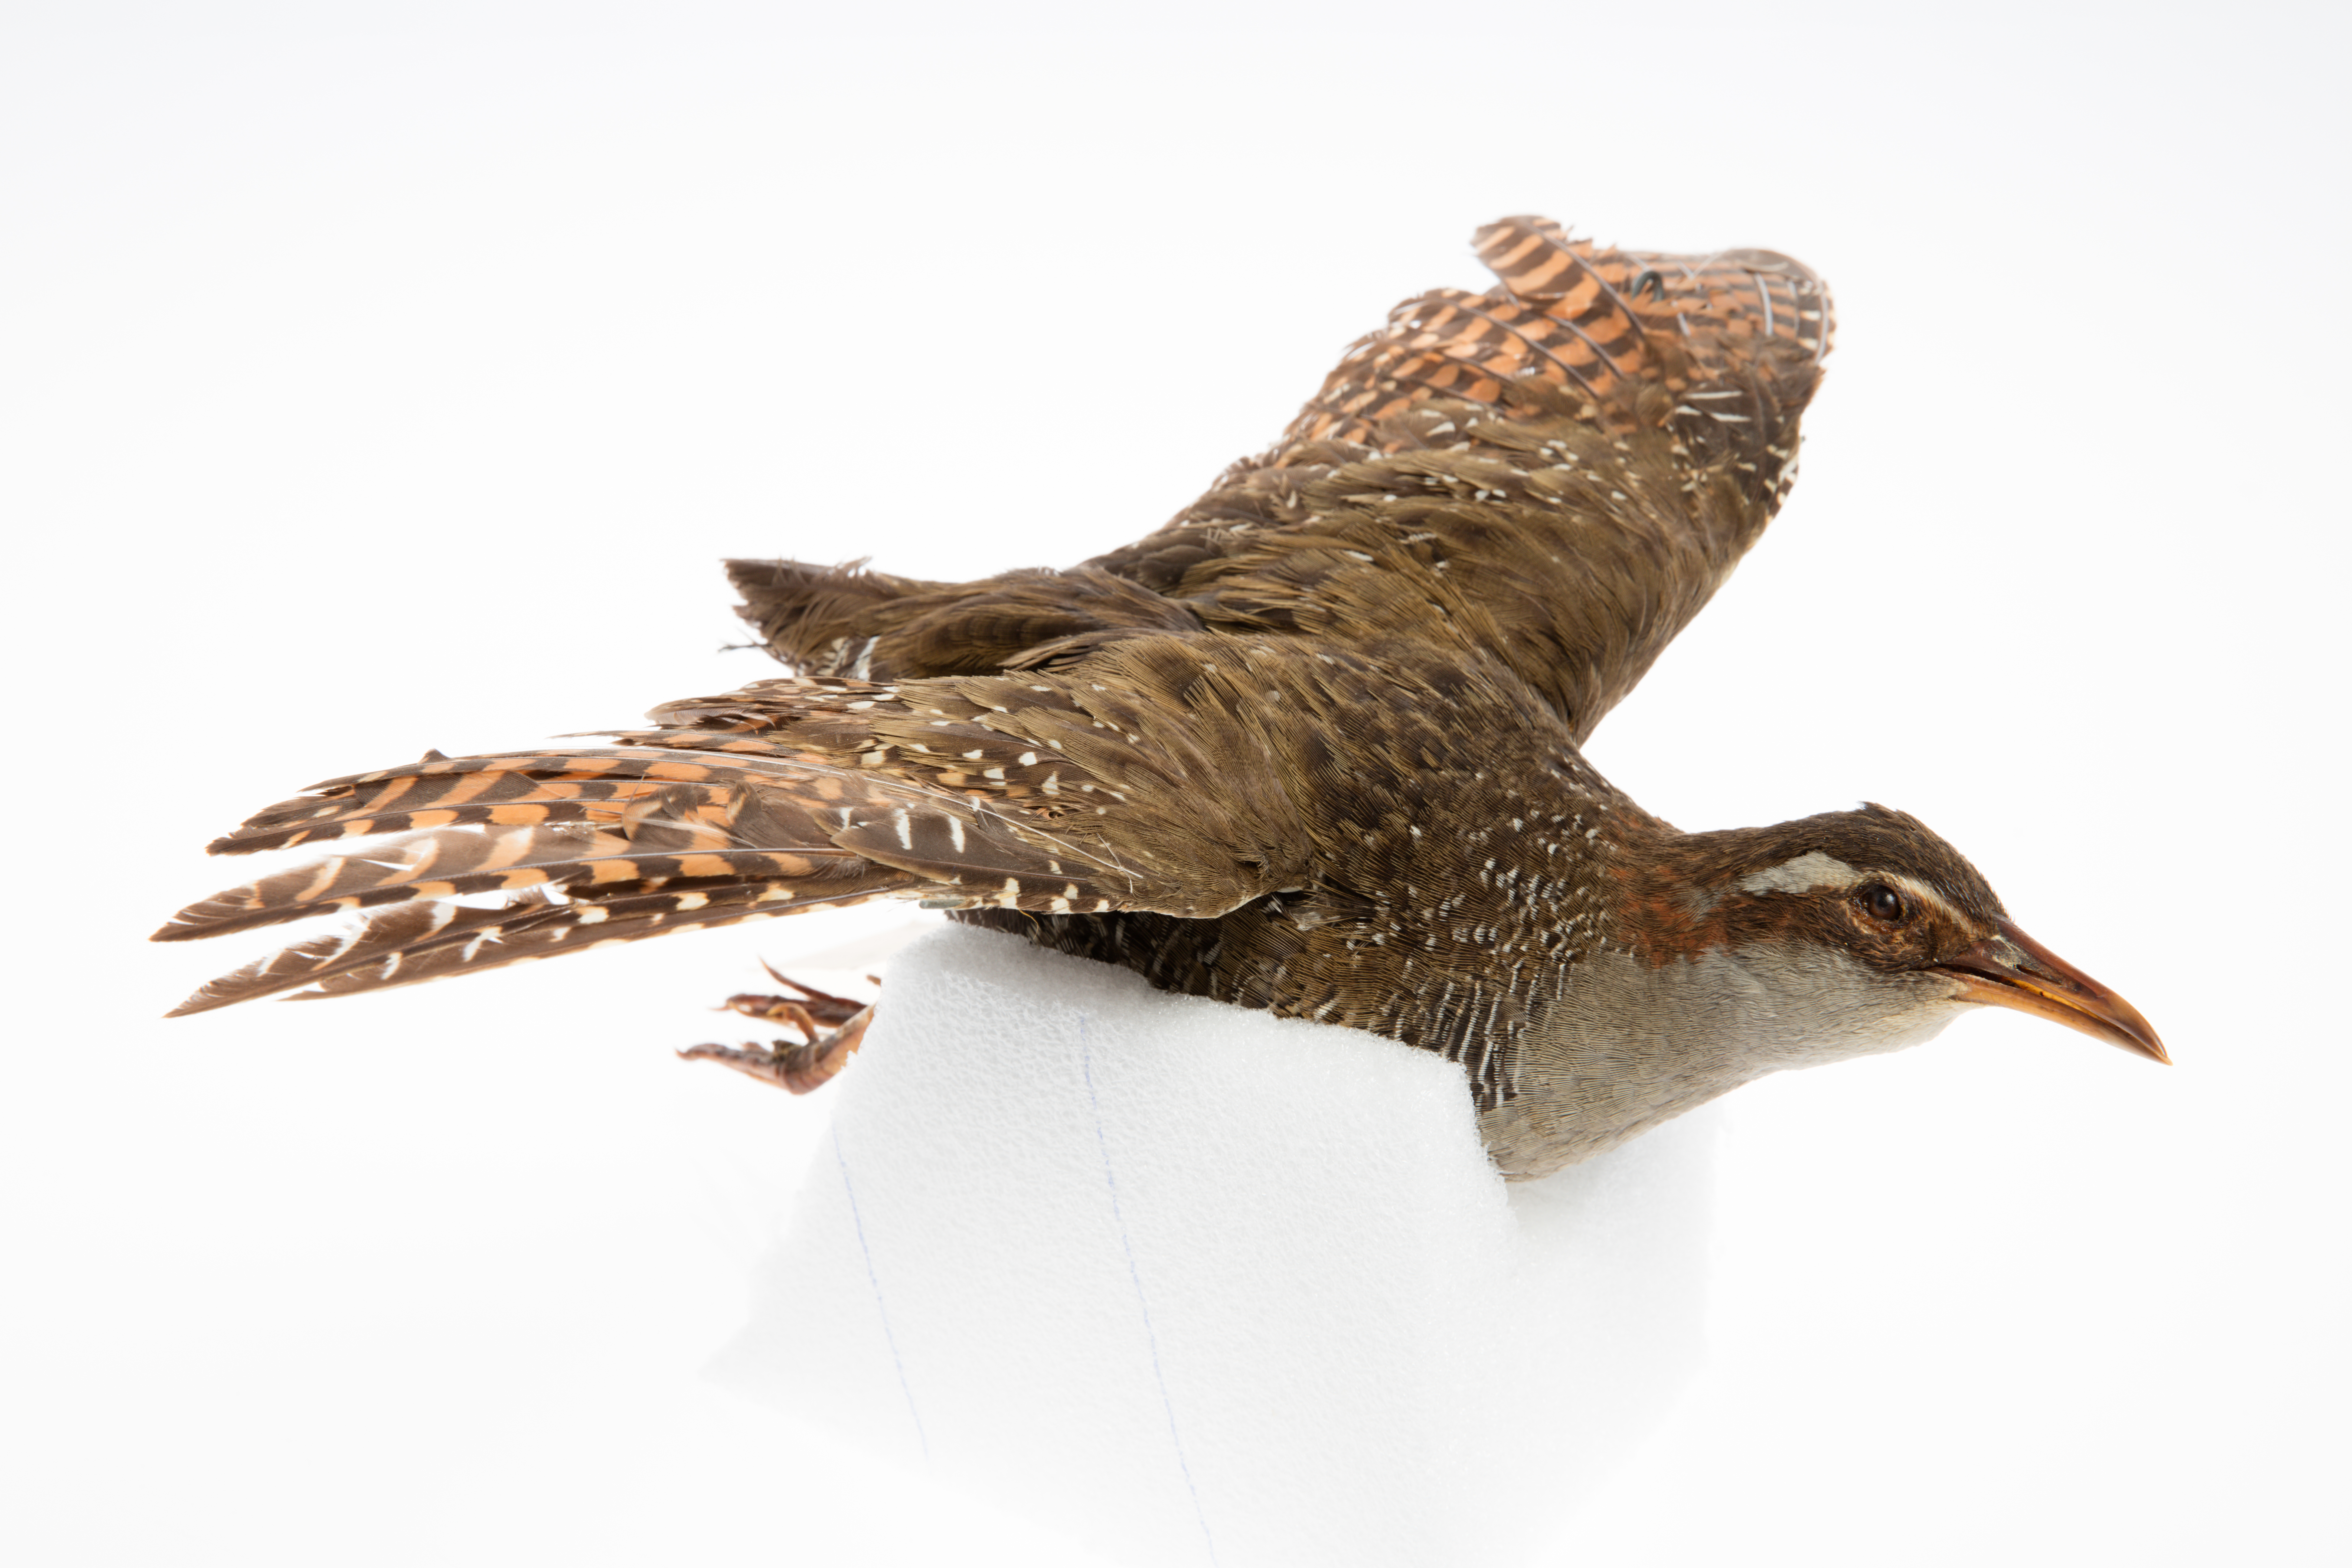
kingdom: Animalia
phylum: Chordata
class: Aves
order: Gruiformes
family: Rallidae
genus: Gallirallus
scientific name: Gallirallus philippensis
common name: Buff-banded rail
